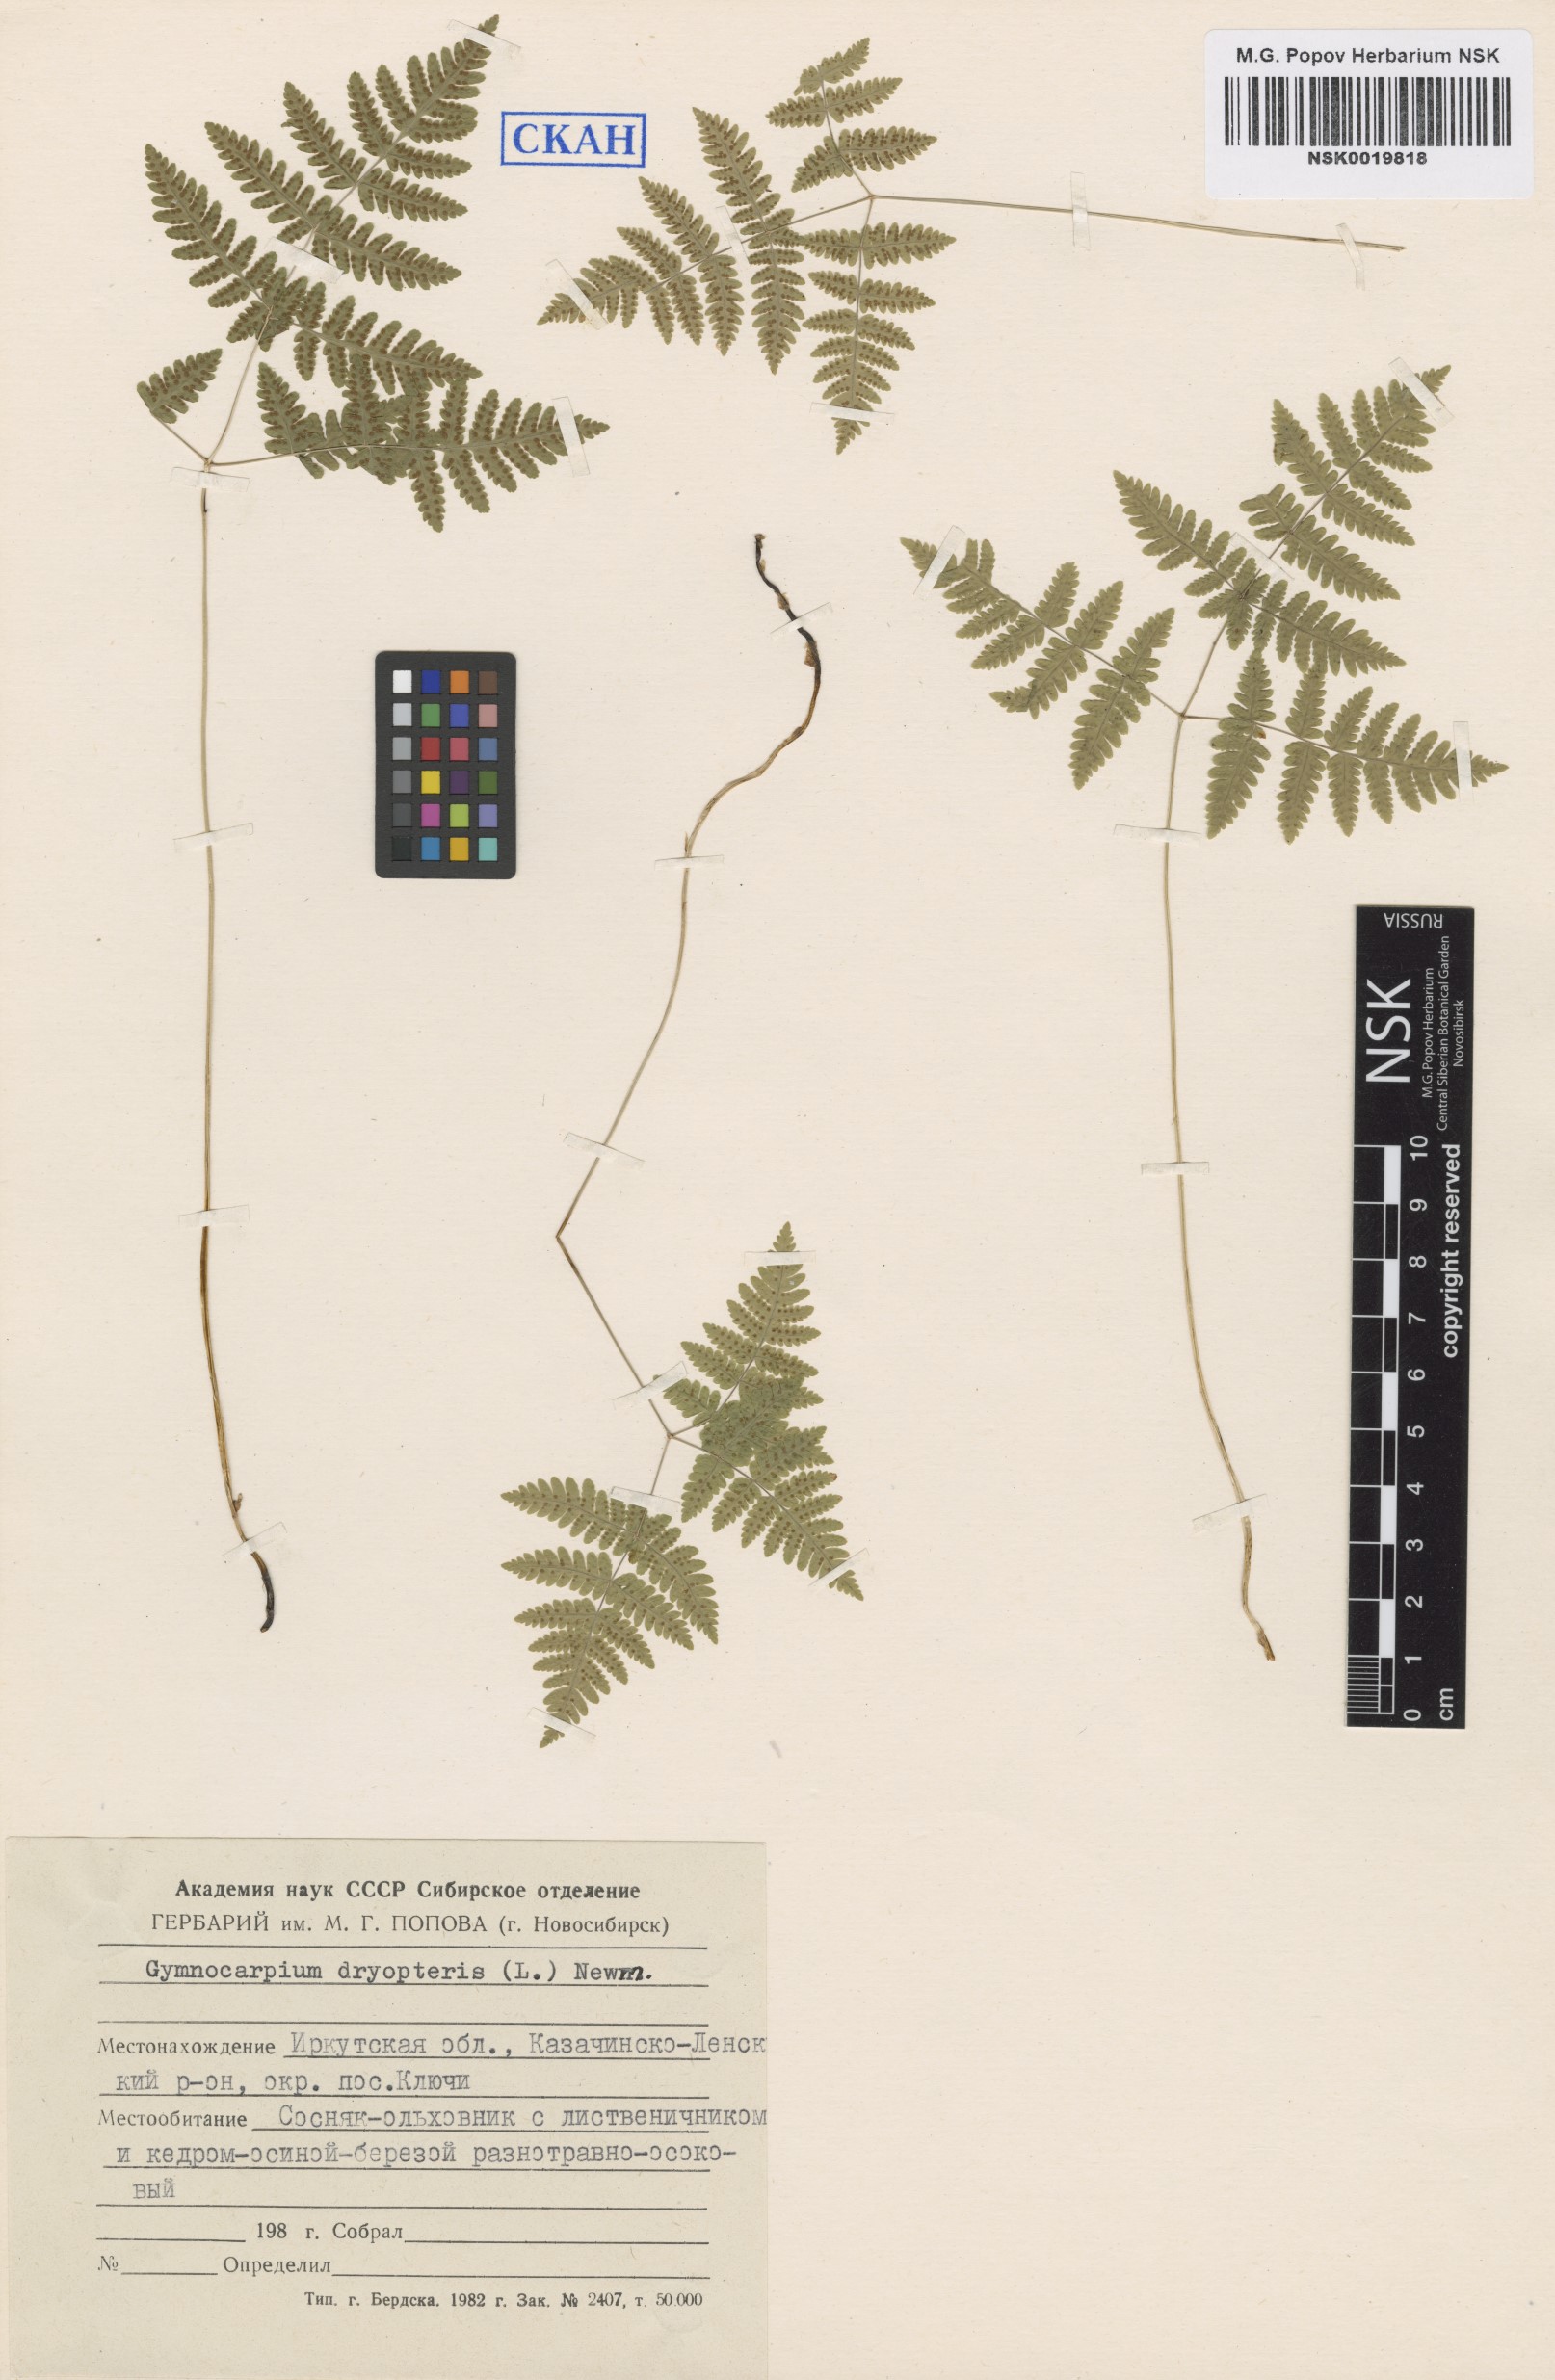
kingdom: Plantae
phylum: Tracheophyta
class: Polypodiopsida
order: Polypodiales
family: Cystopteridaceae
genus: Gymnocarpium
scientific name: Gymnocarpium dryopteris
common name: Oak fern
